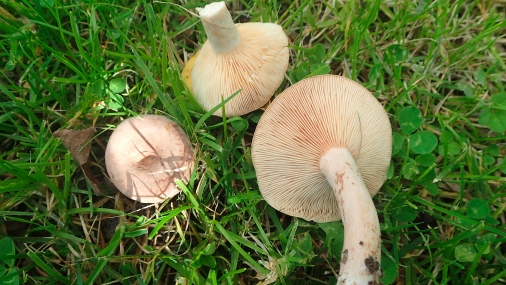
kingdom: Fungi
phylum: Basidiomycota
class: Agaricomycetes
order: Russulales
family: Russulaceae
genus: Lactarius
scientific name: Lactarius glyciosmus
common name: kokos-mælkehat
